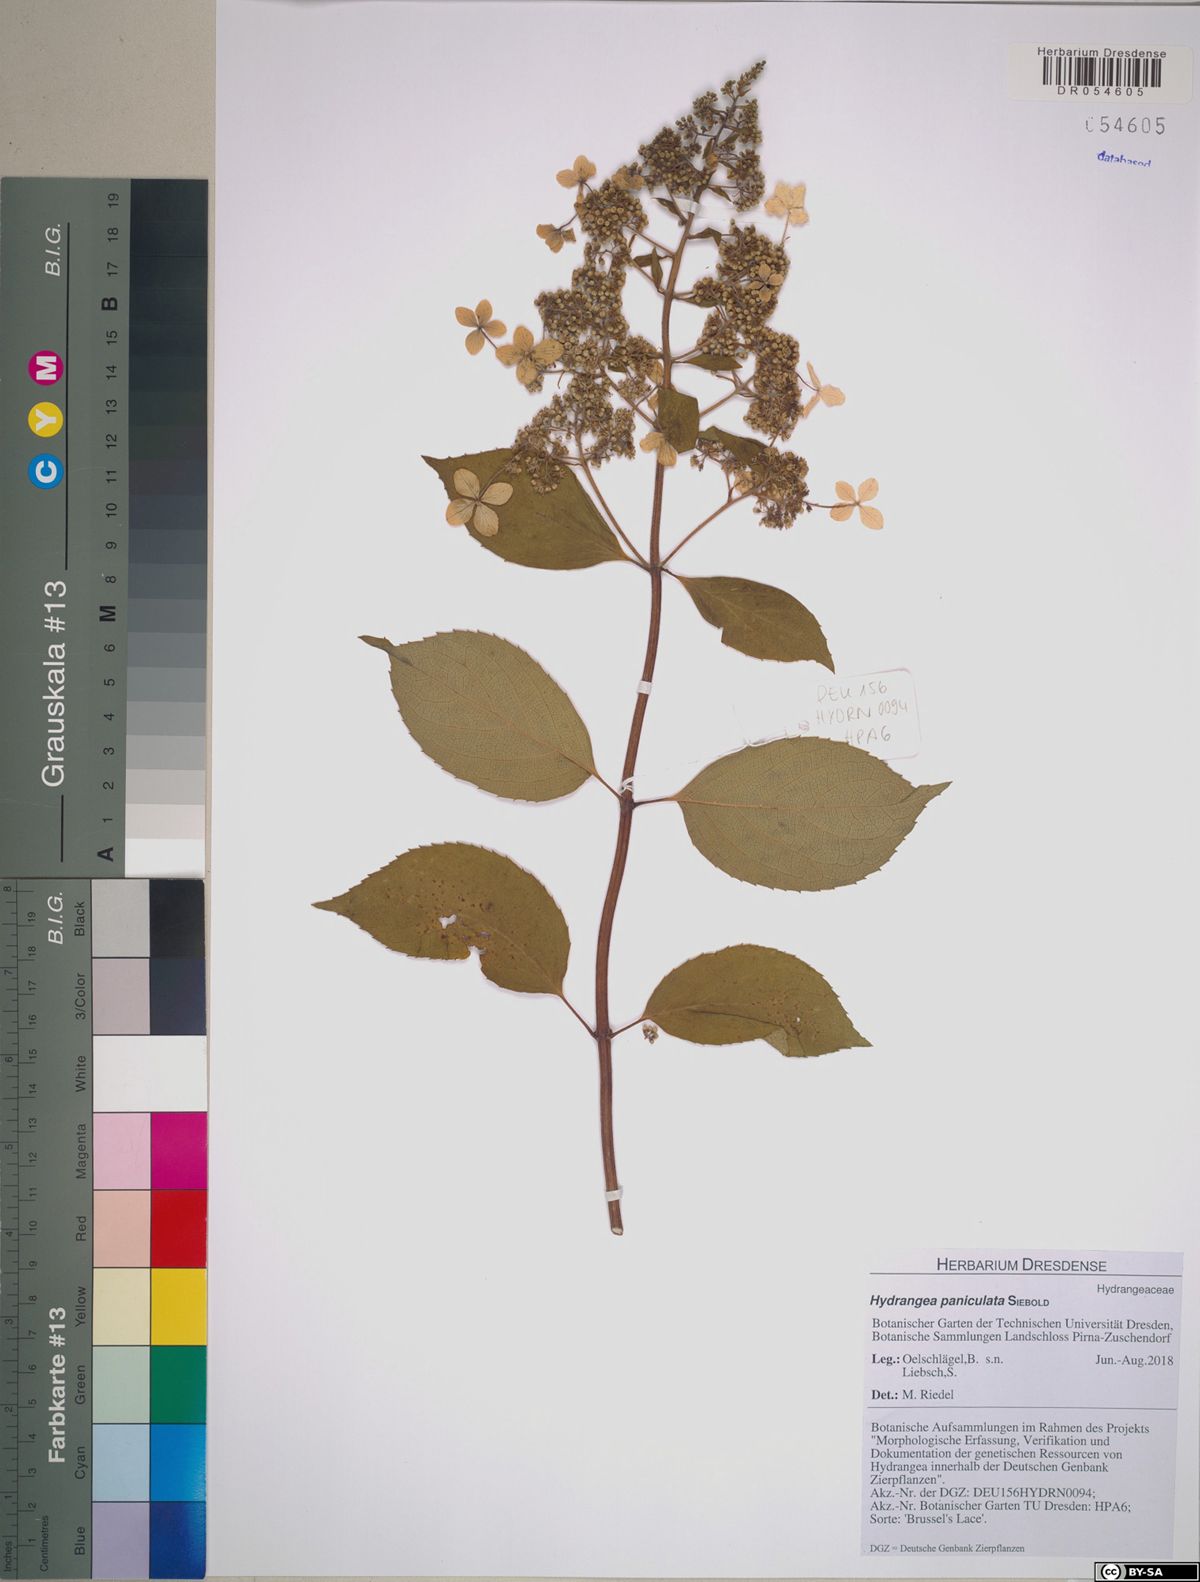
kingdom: Plantae
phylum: Tracheophyta
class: Magnoliopsida
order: Cornales
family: Hydrangeaceae
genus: Hydrangea
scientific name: Hydrangea paniculata
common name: Panicled hydrangea
